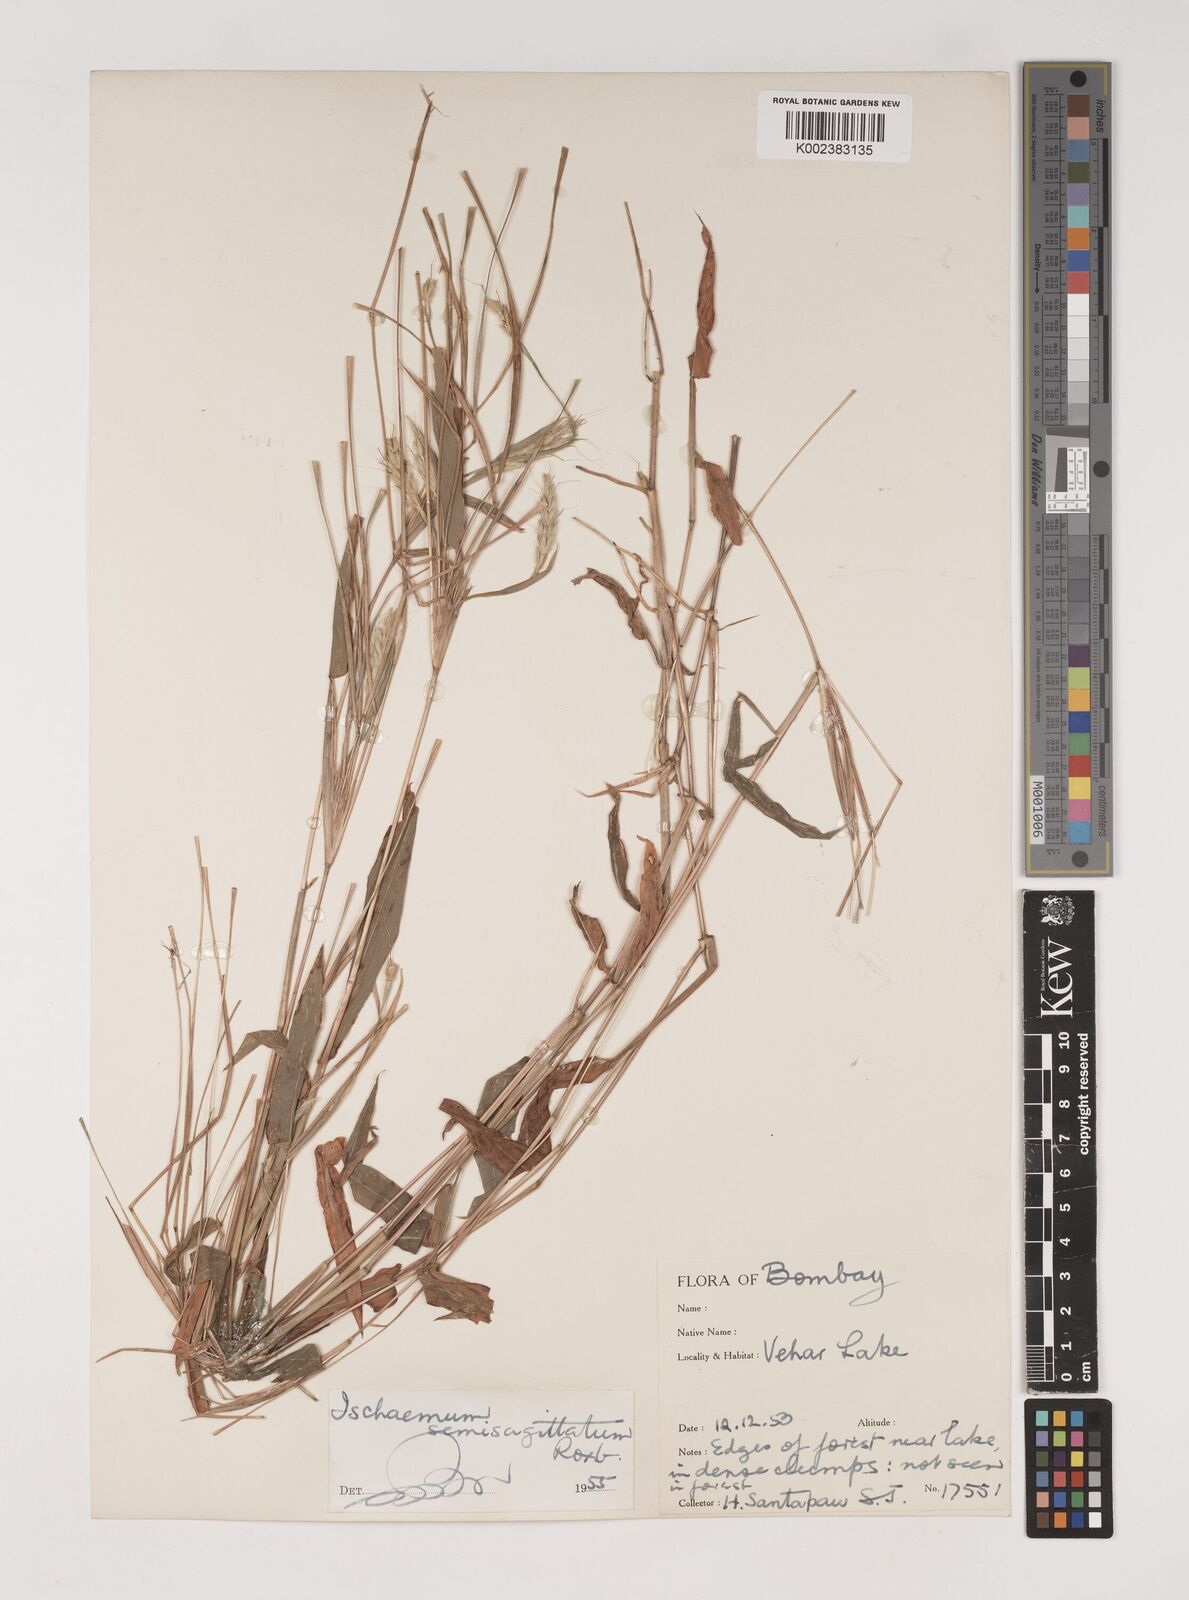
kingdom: Plantae
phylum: Tracheophyta
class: Liliopsida
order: Poales
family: Poaceae
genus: Ischaemum
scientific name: Ischaemum semisagittatum
